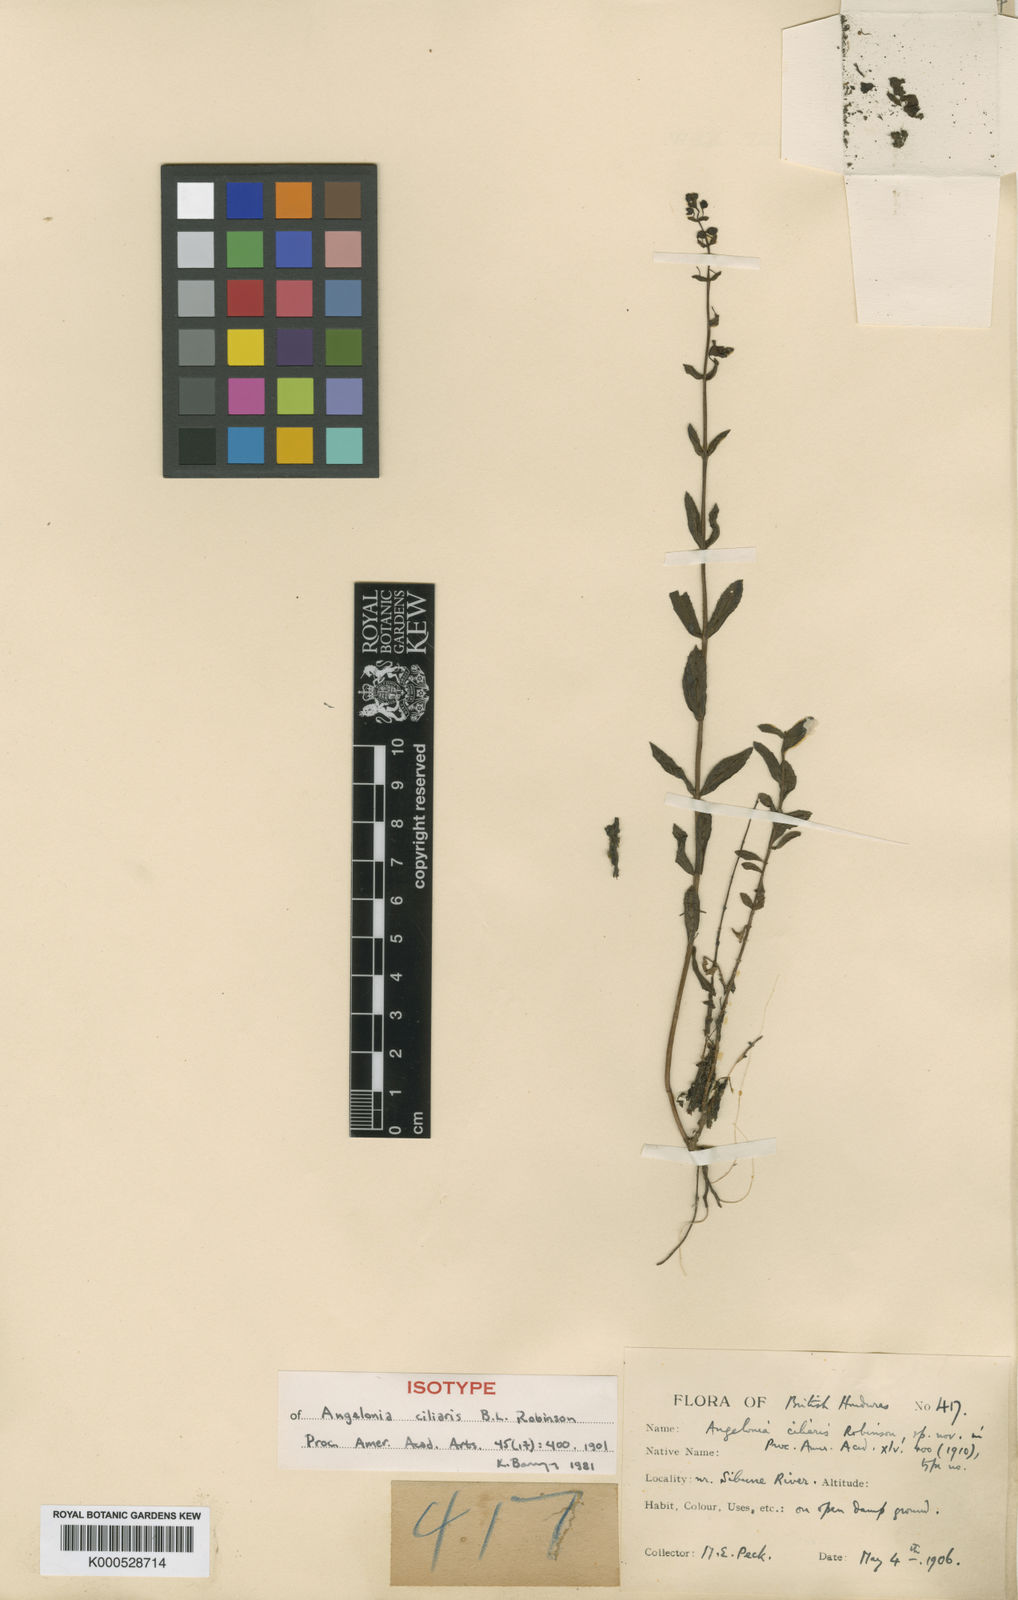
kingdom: Plantae
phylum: Tracheophyta
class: Magnoliopsida
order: Lamiales
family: Plantaginaceae
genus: Angelonia
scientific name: Angelonia ciliaris
